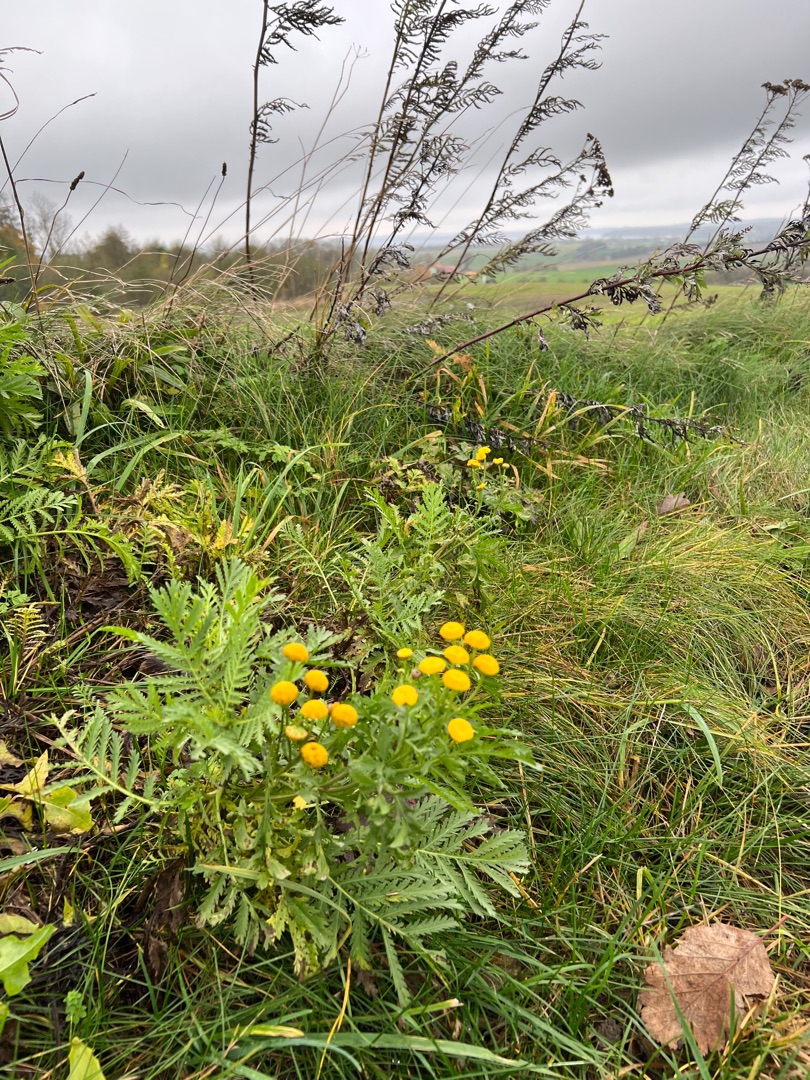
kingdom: Plantae
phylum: Tracheophyta
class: Magnoliopsida
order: Asterales
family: Asteraceae
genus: Tanacetum
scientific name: Tanacetum vulgare
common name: Rejnfan
